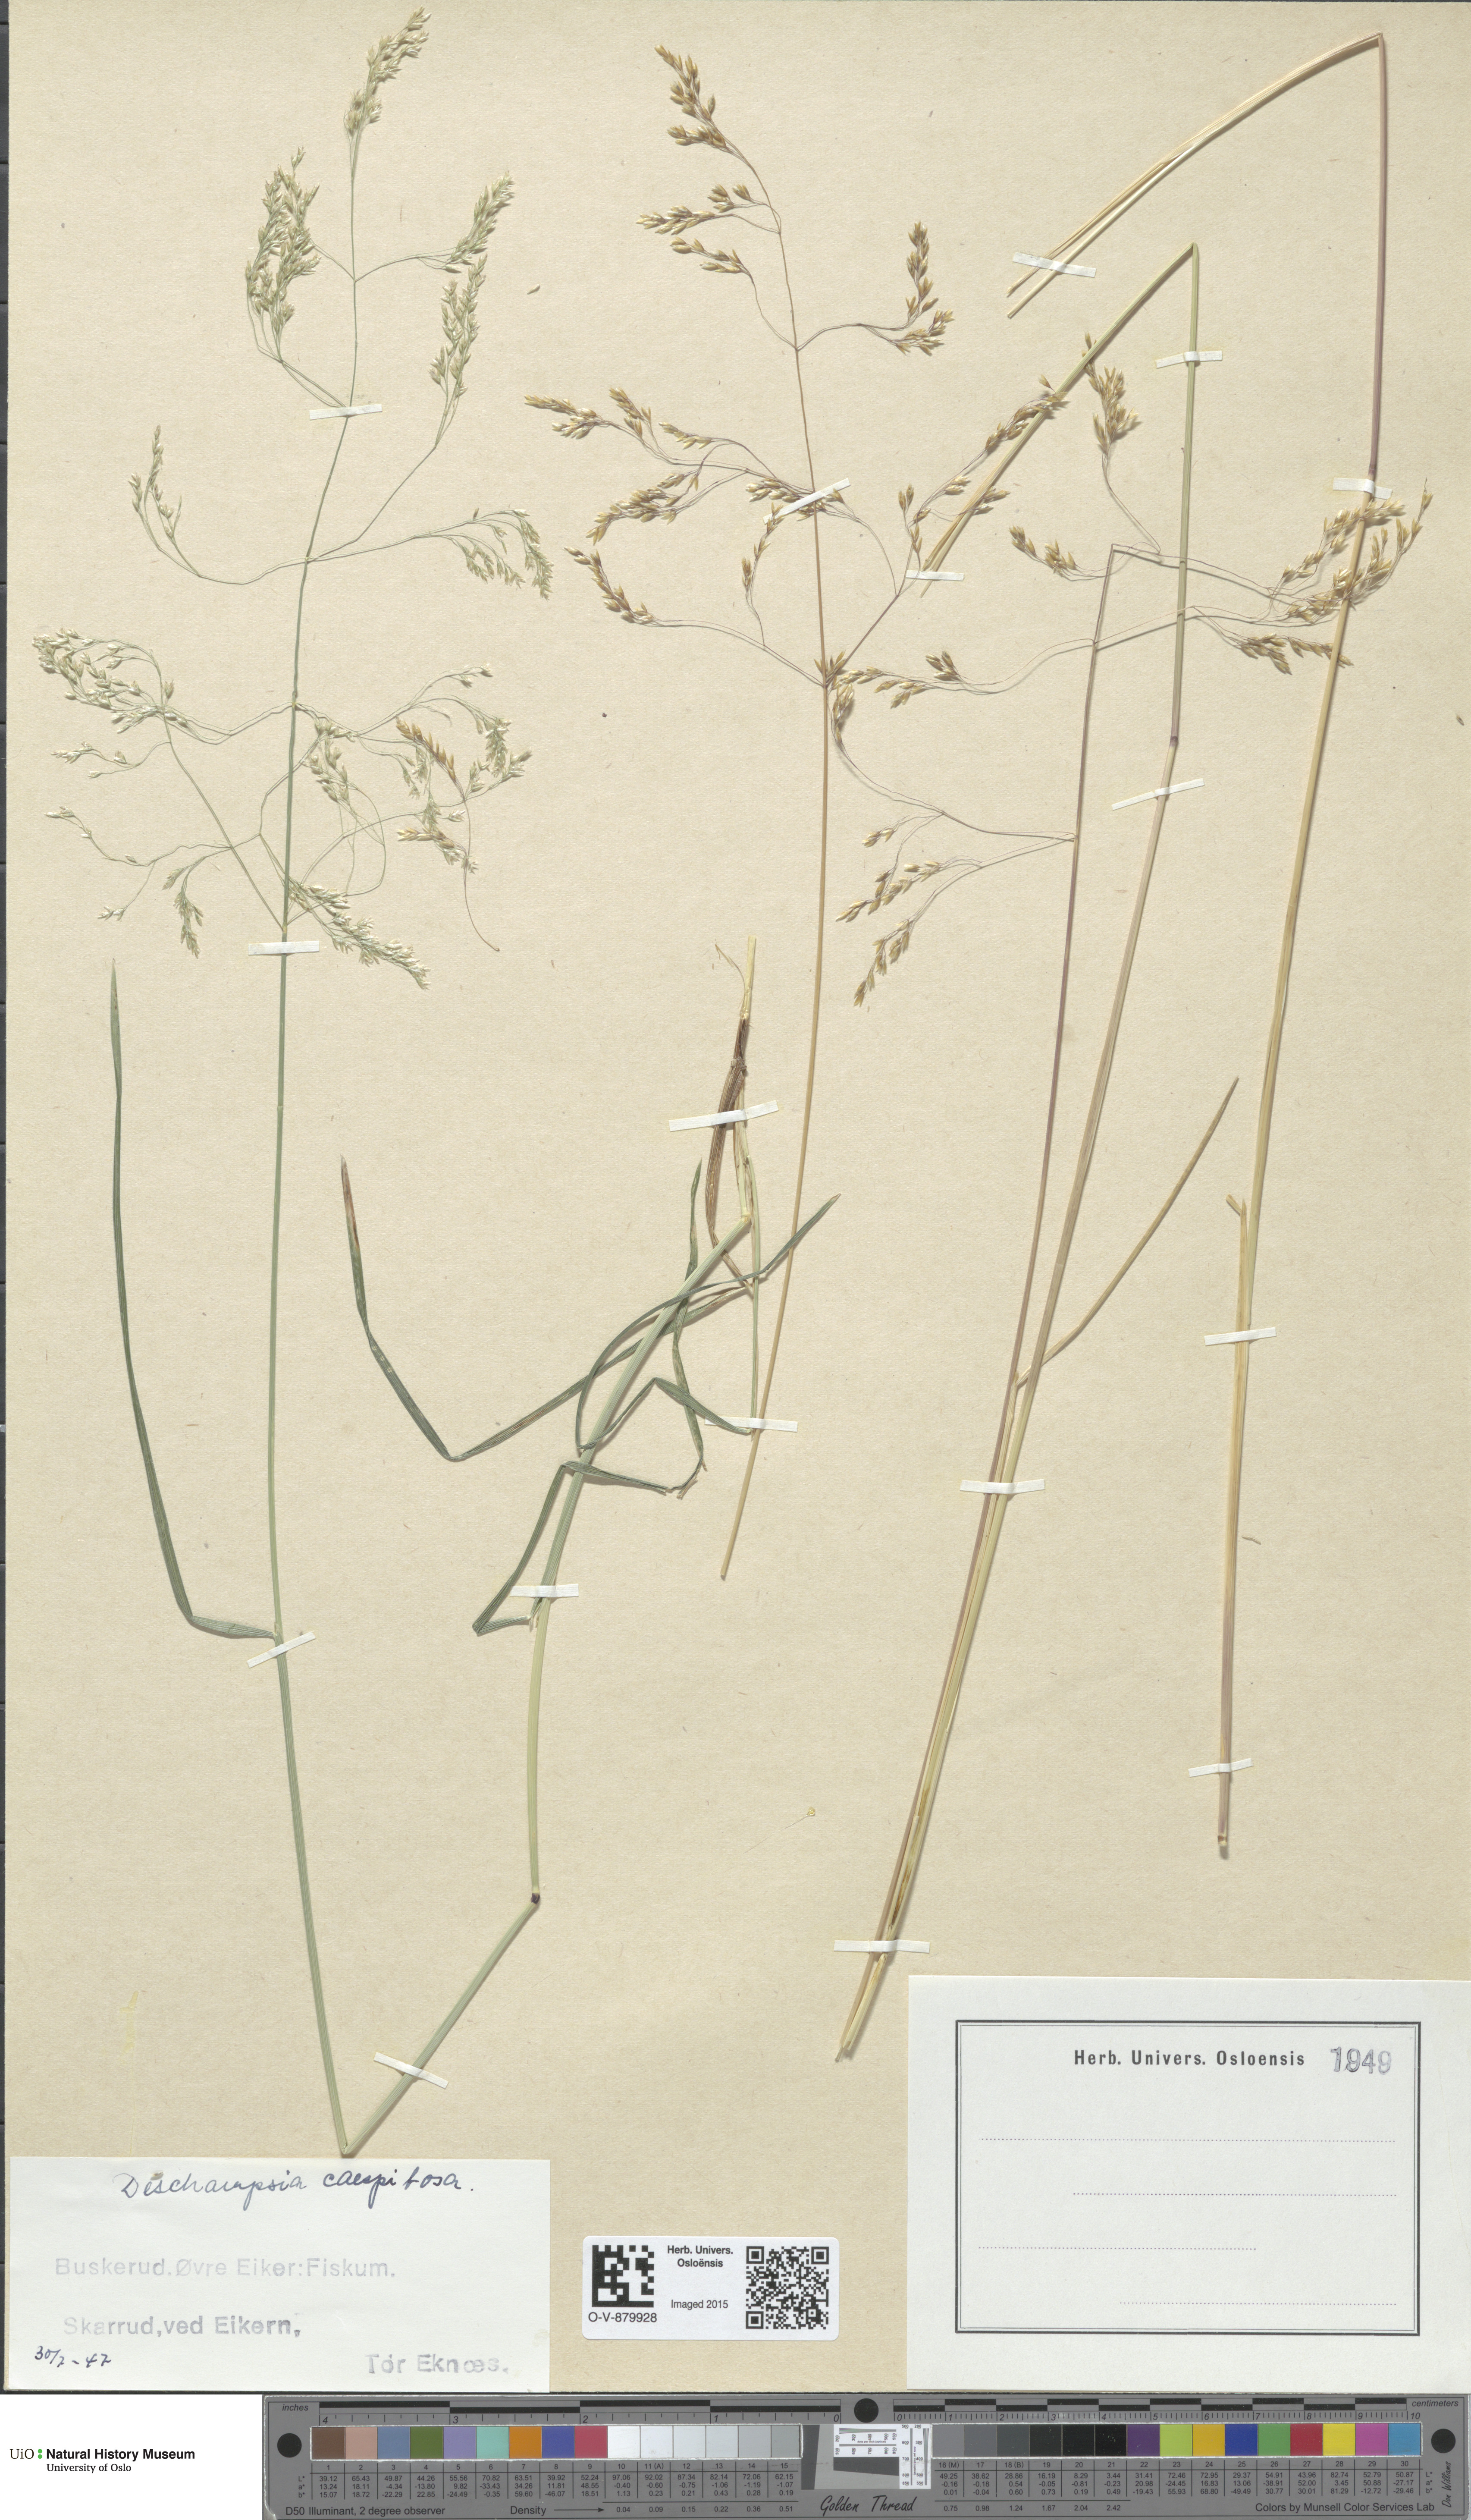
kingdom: Plantae
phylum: Tracheophyta
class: Liliopsida
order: Poales
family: Poaceae
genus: Deschampsia
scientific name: Deschampsia cespitosa
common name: Tufted hair-grass
